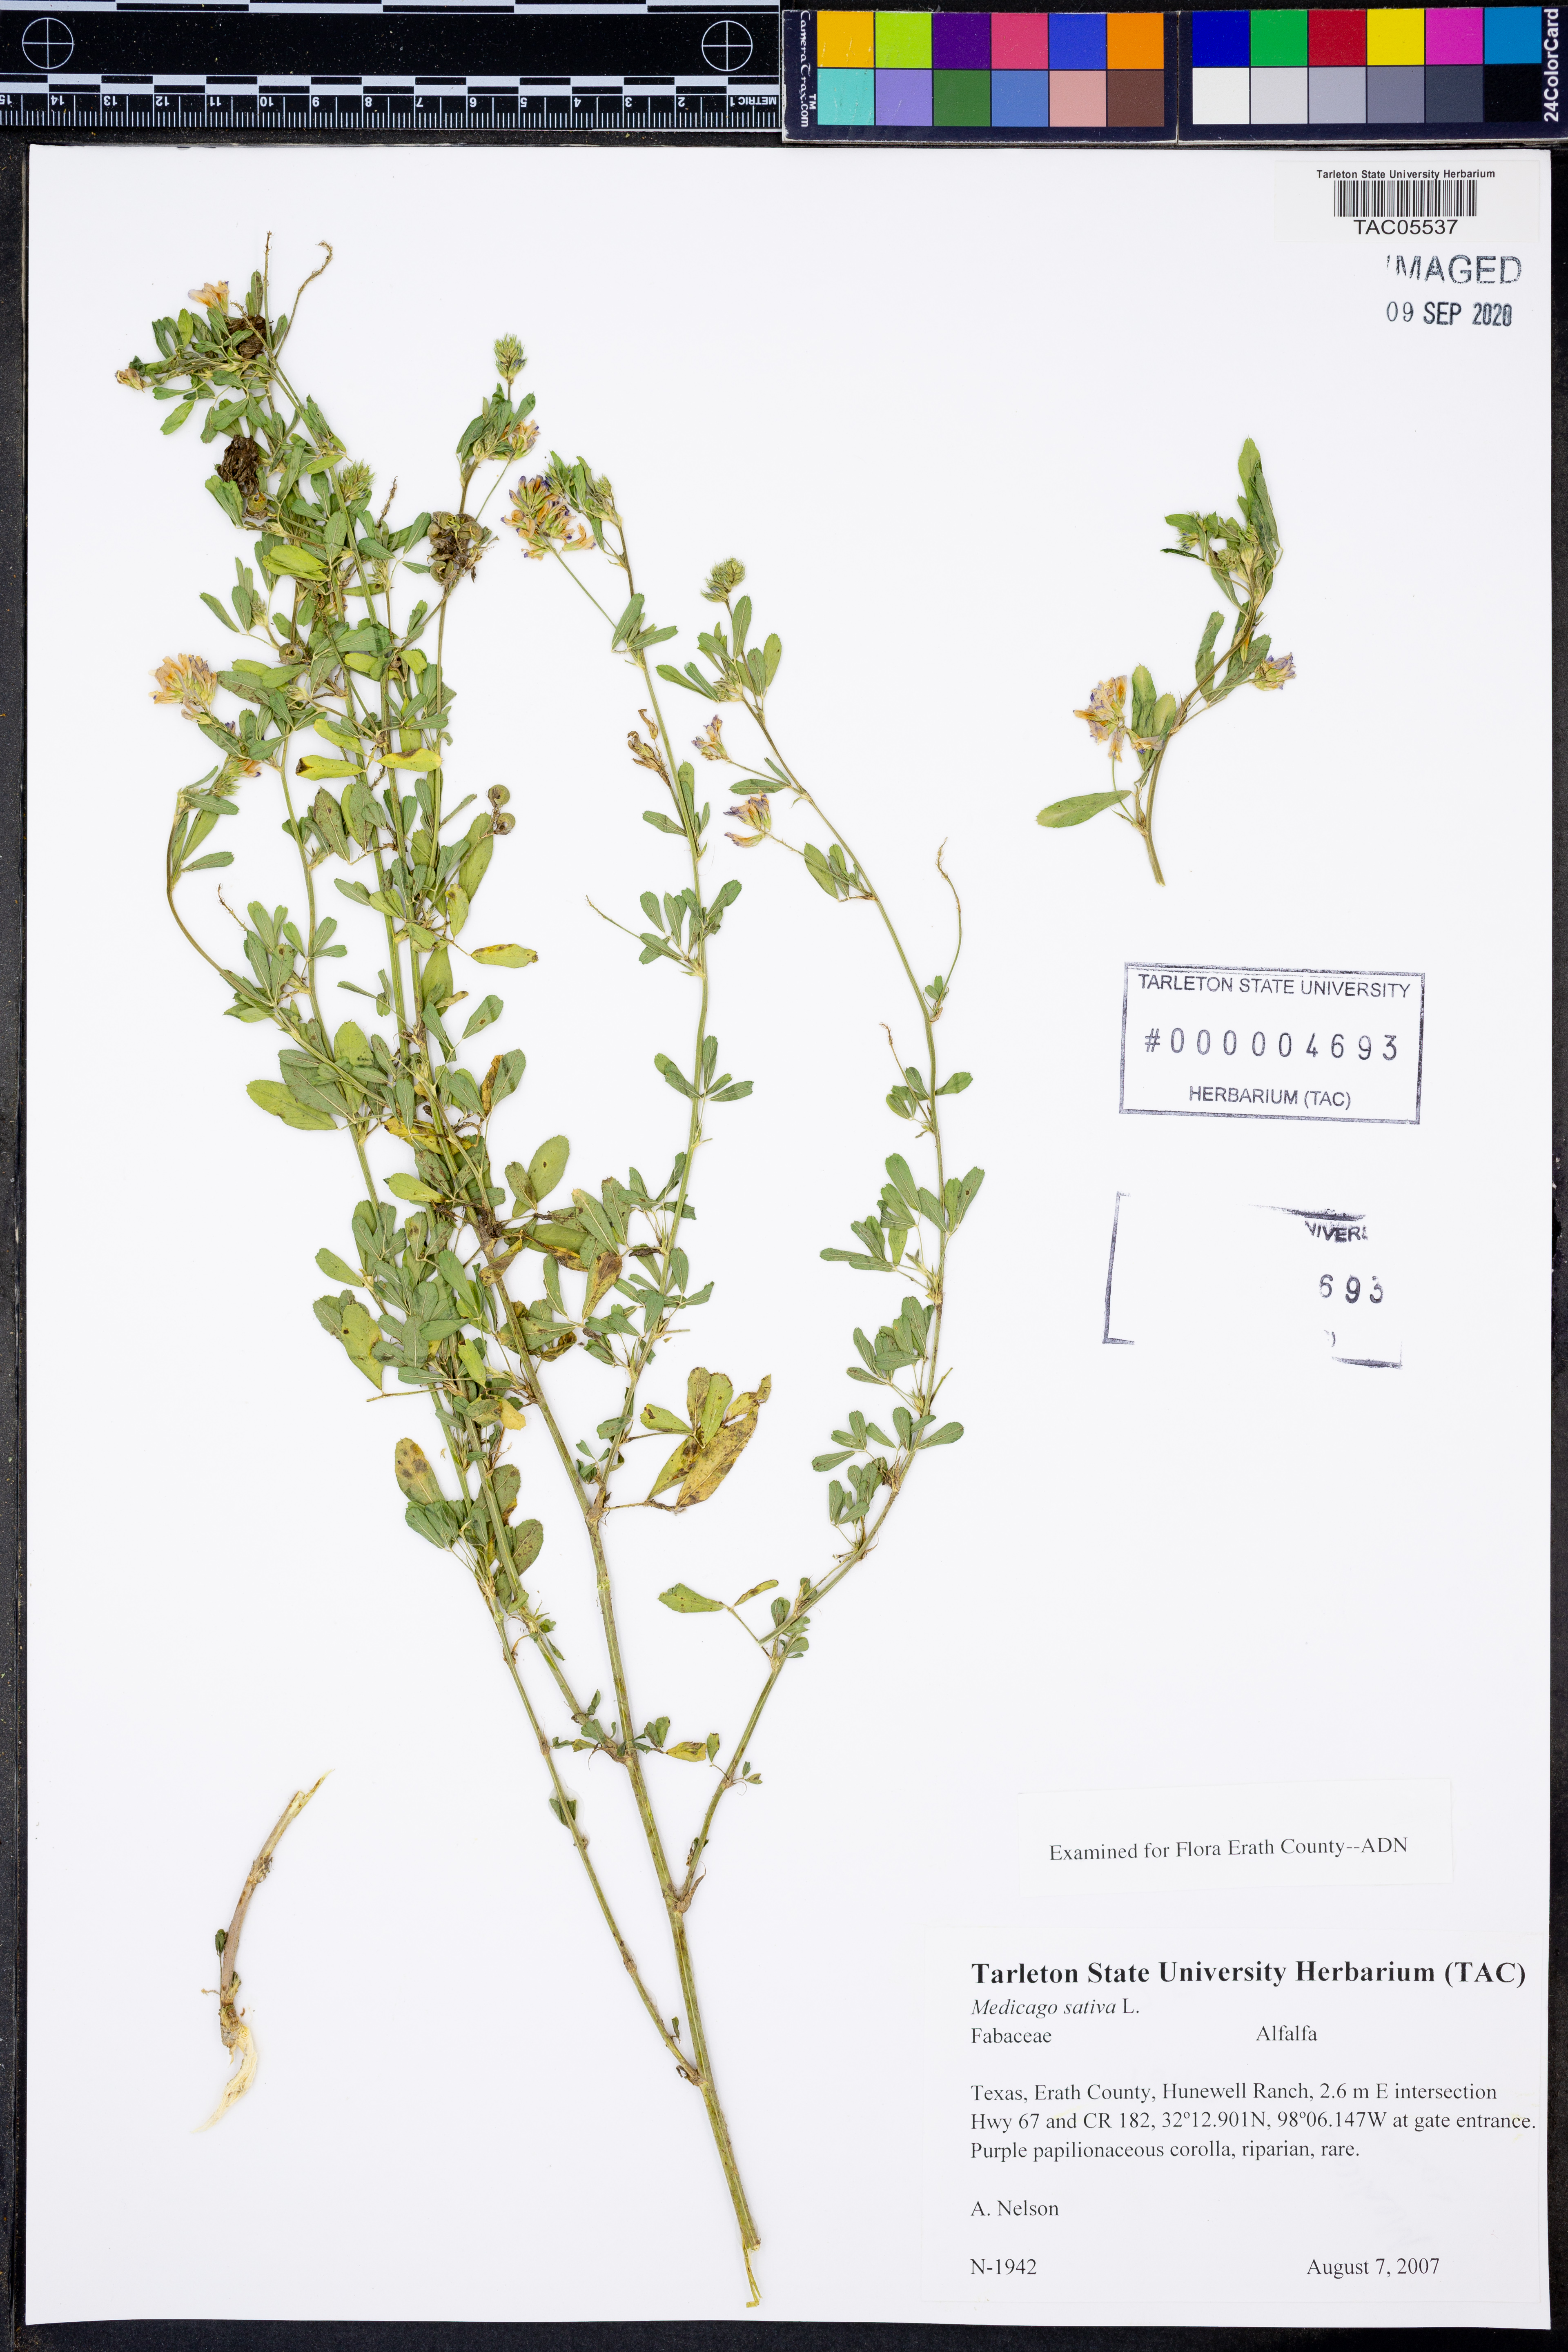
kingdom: Plantae
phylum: Tracheophyta
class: Magnoliopsida
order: Fabales
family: Fabaceae
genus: Medicago
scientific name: Medicago sativa
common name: Alfalfa
